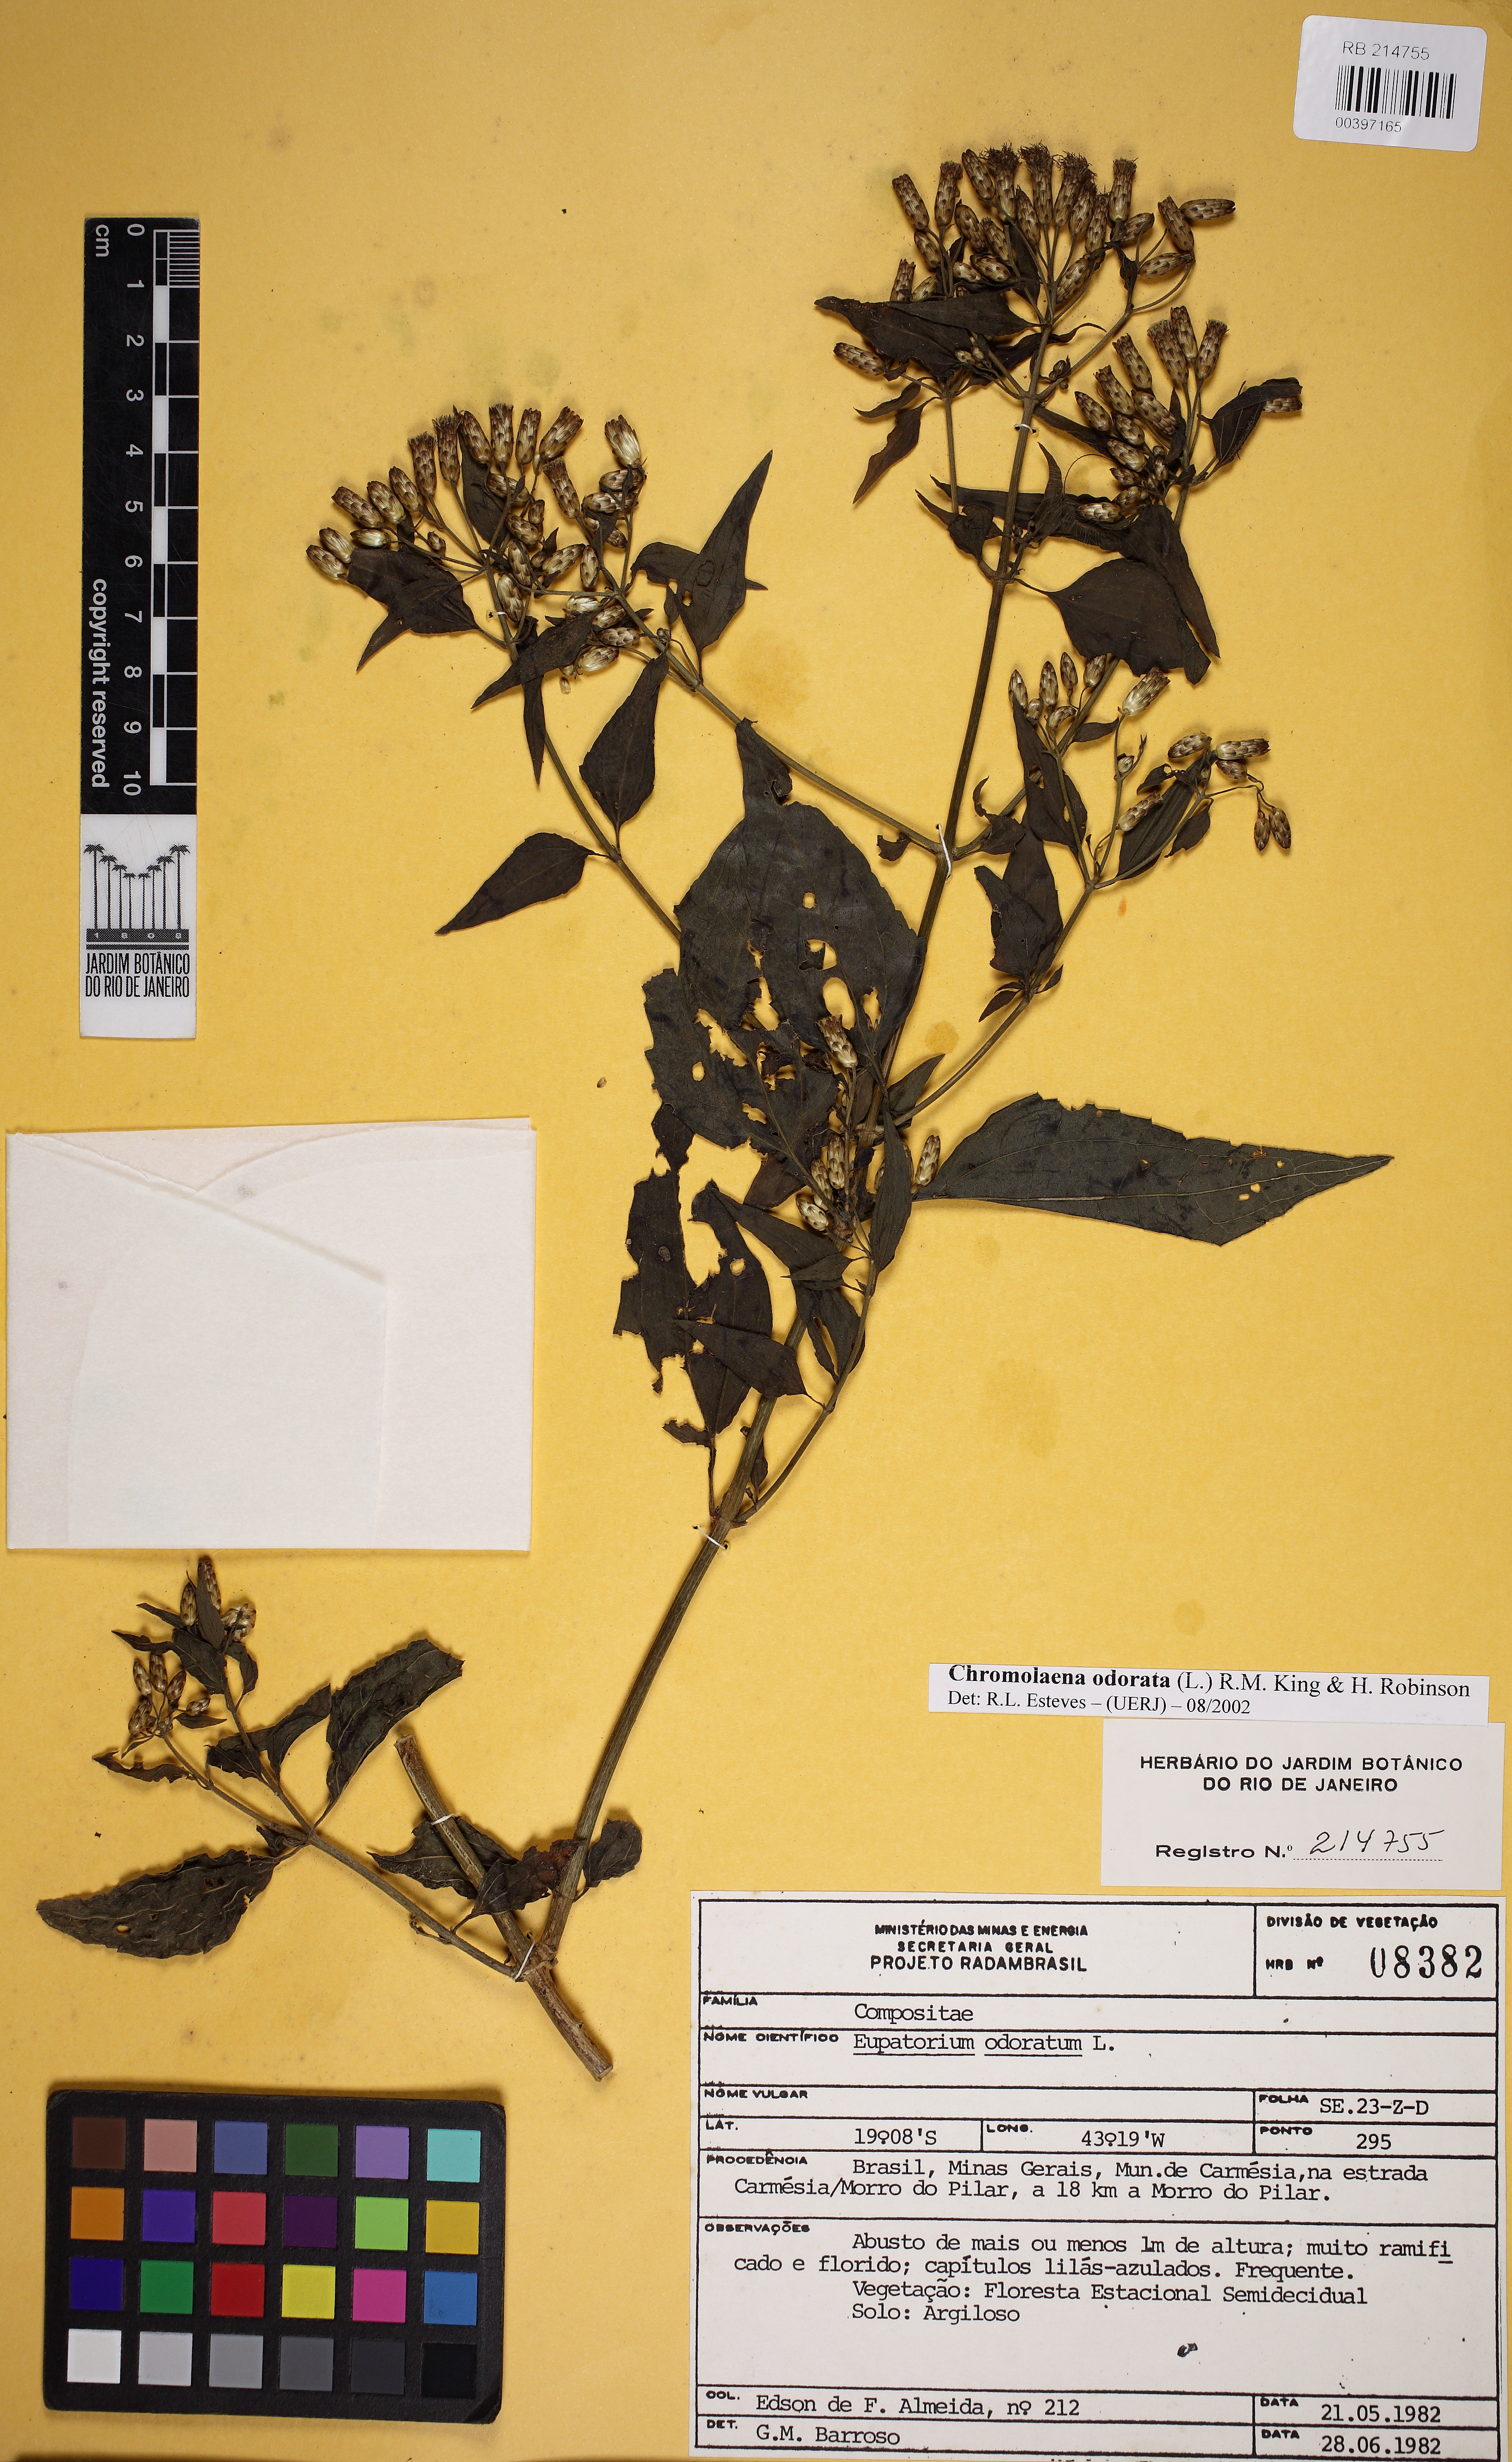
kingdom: Plantae
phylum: Tracheophyta
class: Magnoliopsida
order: Asterales
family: Asteraceae
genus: Chromolaena
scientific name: Chromolaena odorata
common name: Siamweed
